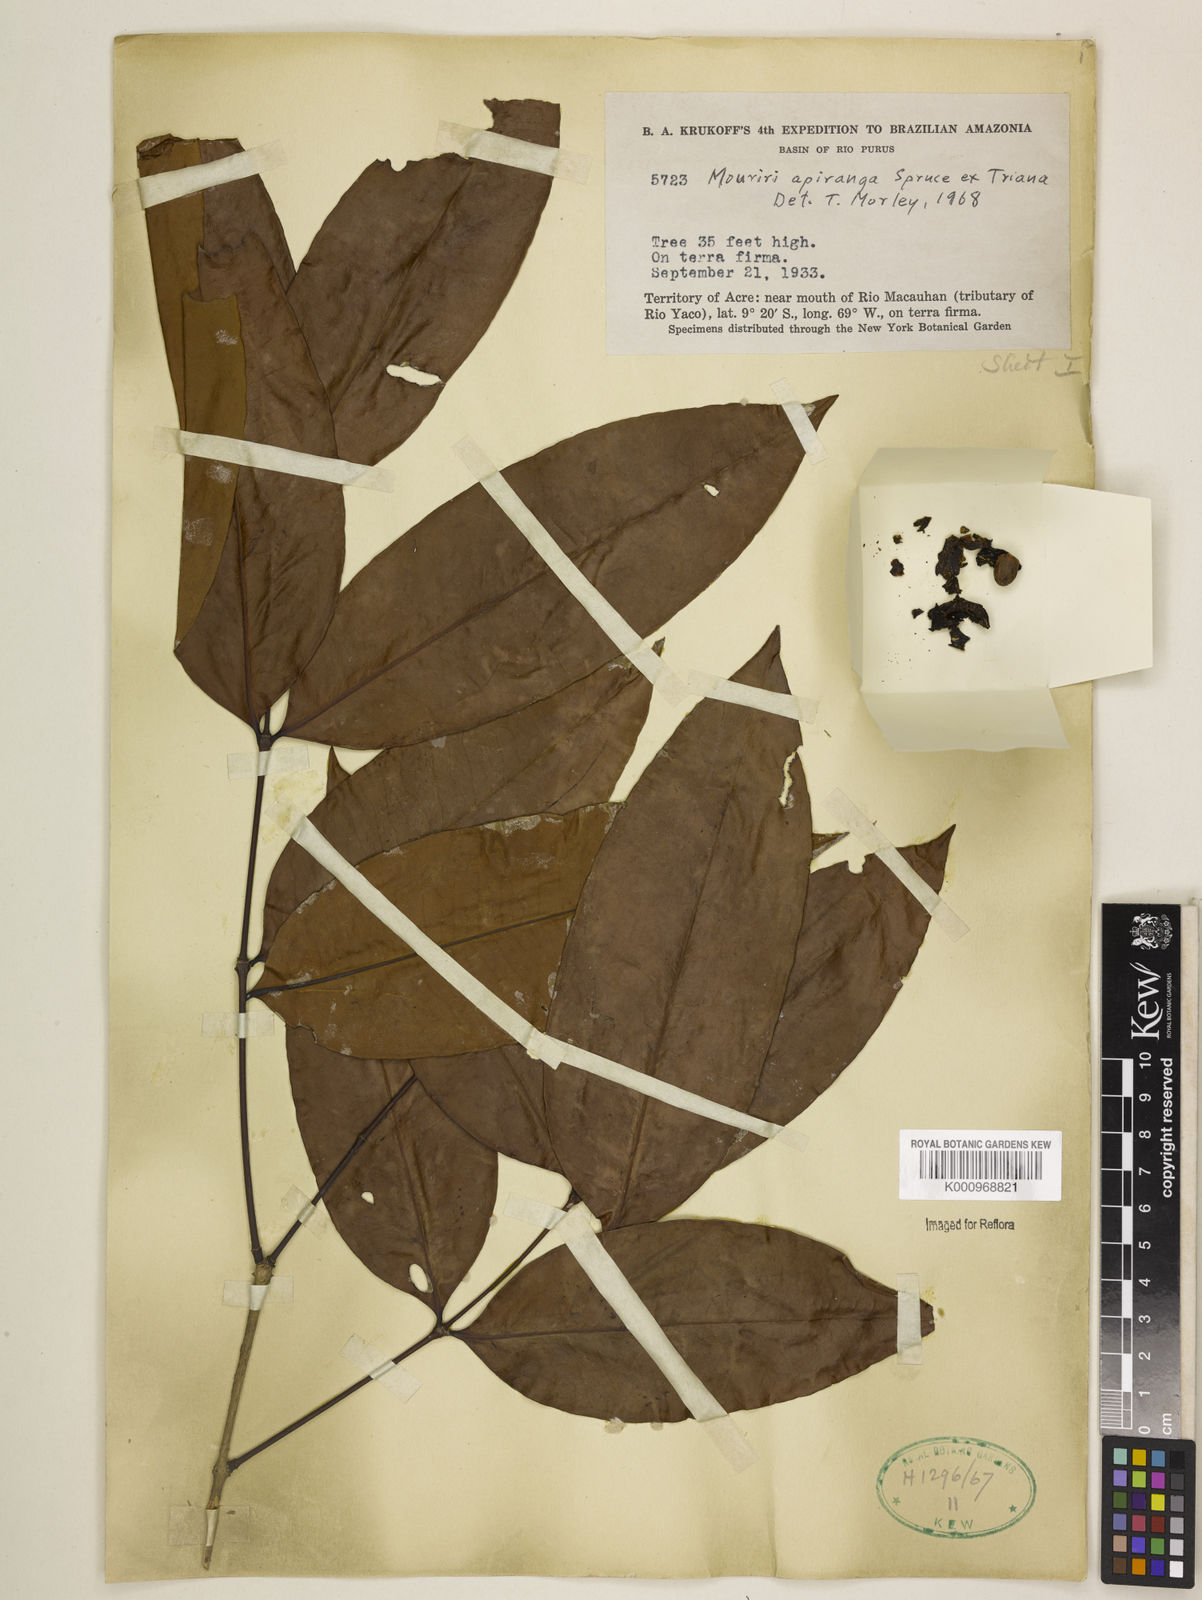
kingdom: Plantae
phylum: Tracheophyta
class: Magnoliopsida
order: Myrtales
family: Melastomataceae
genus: Mouriri
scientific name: Mouriri apiranga
